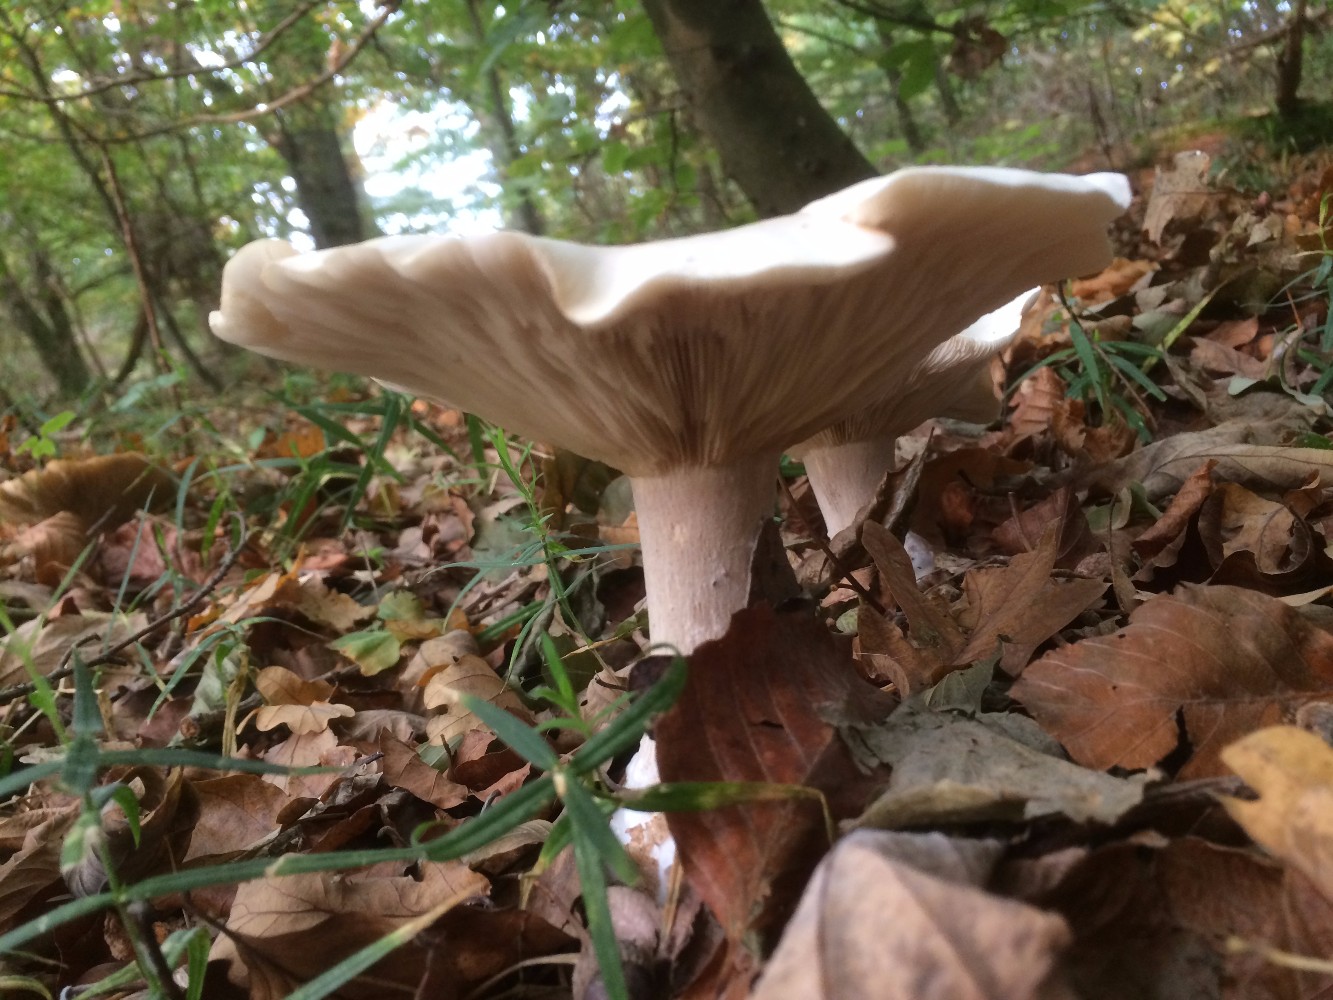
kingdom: Fungi
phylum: Basidiomycota
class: Agaricomycetes
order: Agaricales
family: Tricholomataceae
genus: Clitocybe
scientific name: Clitocybe nebularis
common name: tåge-tragthat
